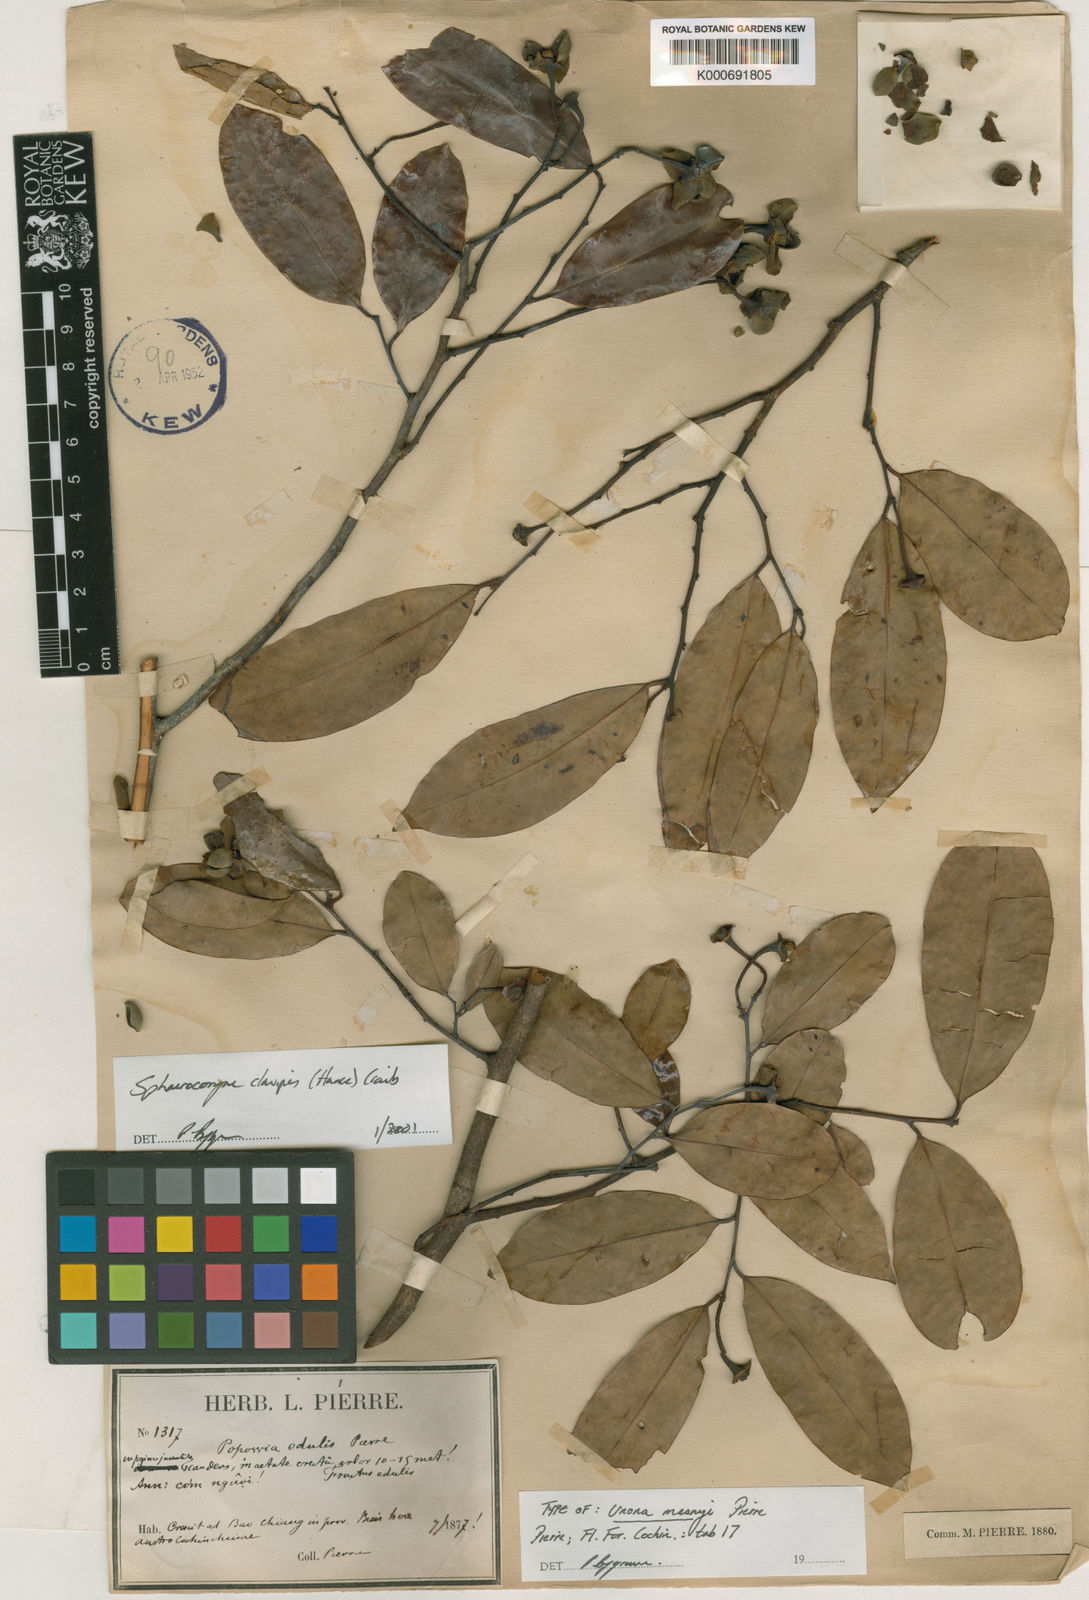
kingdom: Plantae
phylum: Tracheophyta
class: Magnoliopsida
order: Magnoliales
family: Annonaceae
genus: Sphaerocoryne
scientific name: Sphaerocoryne affinis
